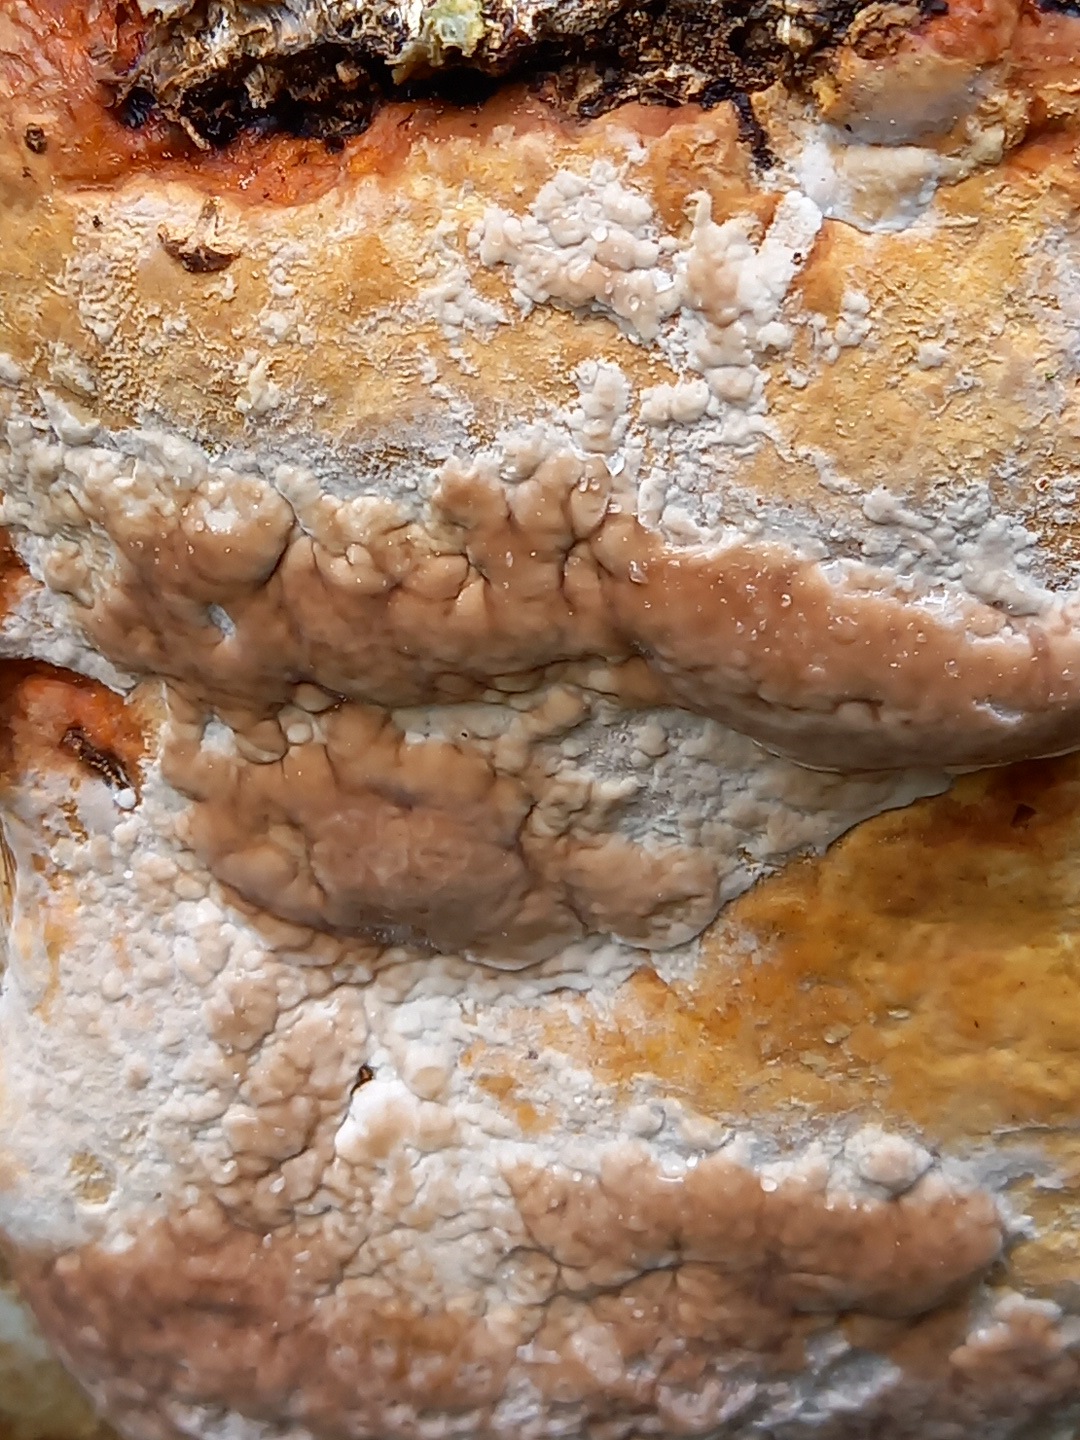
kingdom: Fungi
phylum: Basidiomycota
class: Agaricomycetes
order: Polyporales
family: Fomitopsidaceae
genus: Fomitopsis
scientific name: Fomitopsis pinicola
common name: randbæltet hovporesvamp
